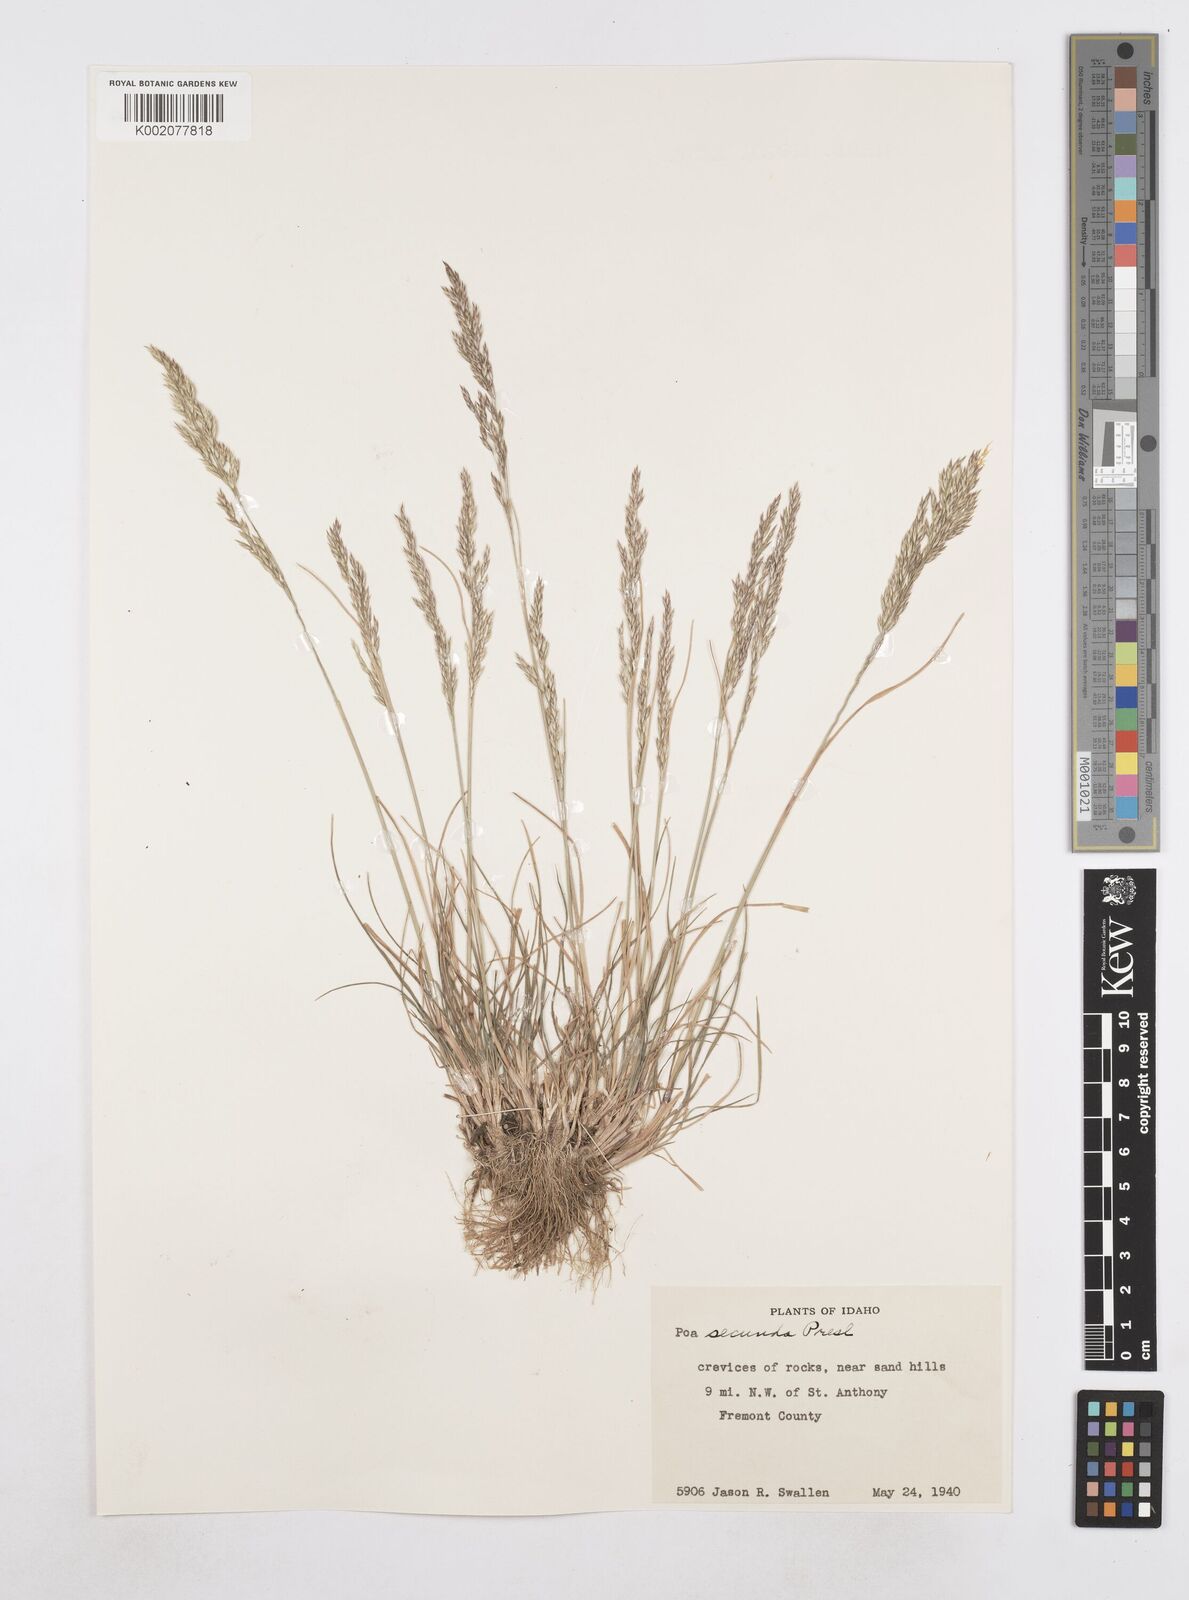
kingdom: Plantae
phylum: Tracheophyta
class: Liliopsida
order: Poales
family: Poaceae
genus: Poa
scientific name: Poa secunda
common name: Sandberg bluegrass
